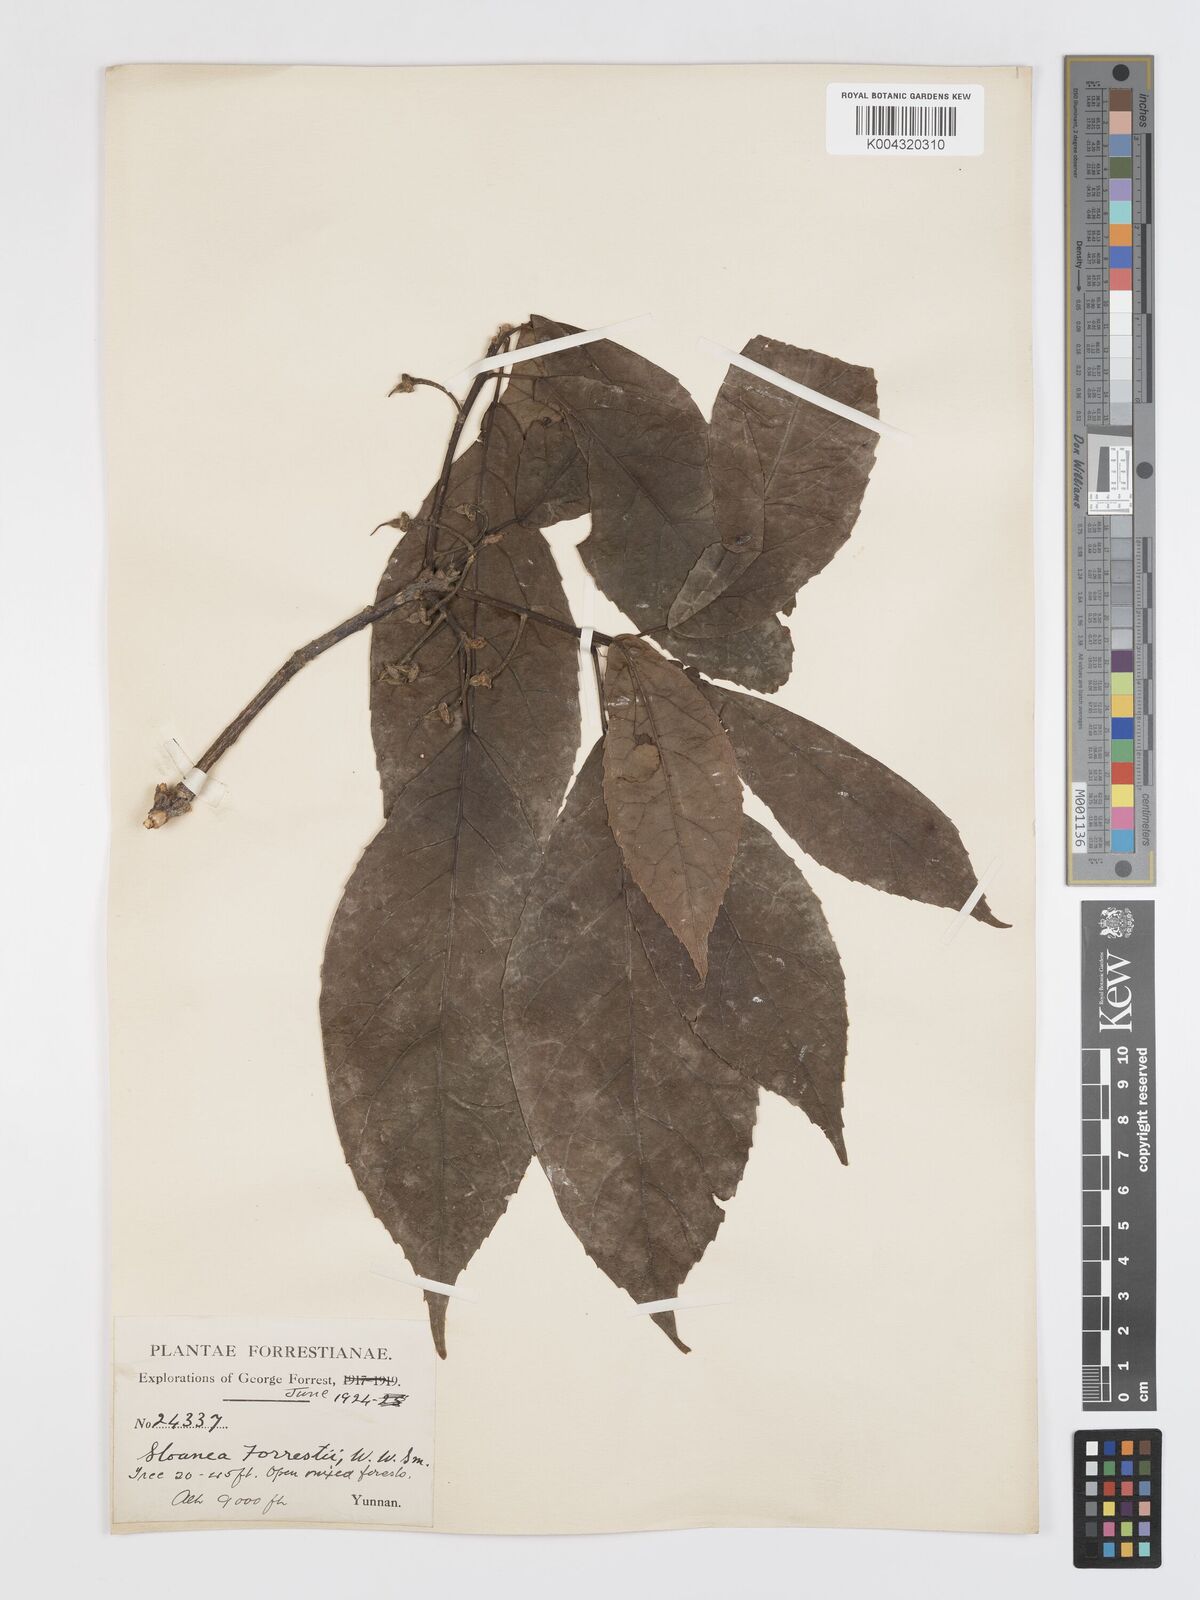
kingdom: Plantae
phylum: Tracheophyta
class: Magnoliopsida
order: Oxalidales
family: Elaeocarpaceae
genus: Sloanea
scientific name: Sloanea sterculiacea
